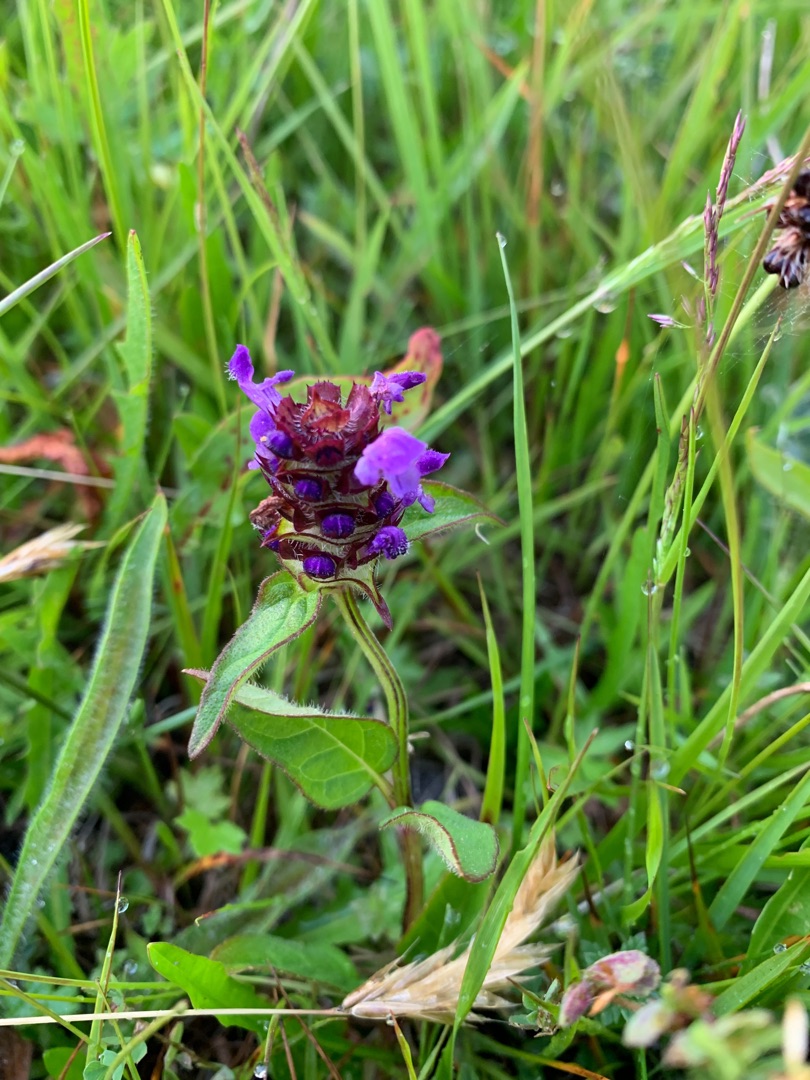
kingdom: Plantae
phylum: Tracheophyta
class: Magnoliopsida
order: Lamiales
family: Lamiaceae
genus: Prunella
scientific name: Prunella vulgaris
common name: Almindelig brunelle
